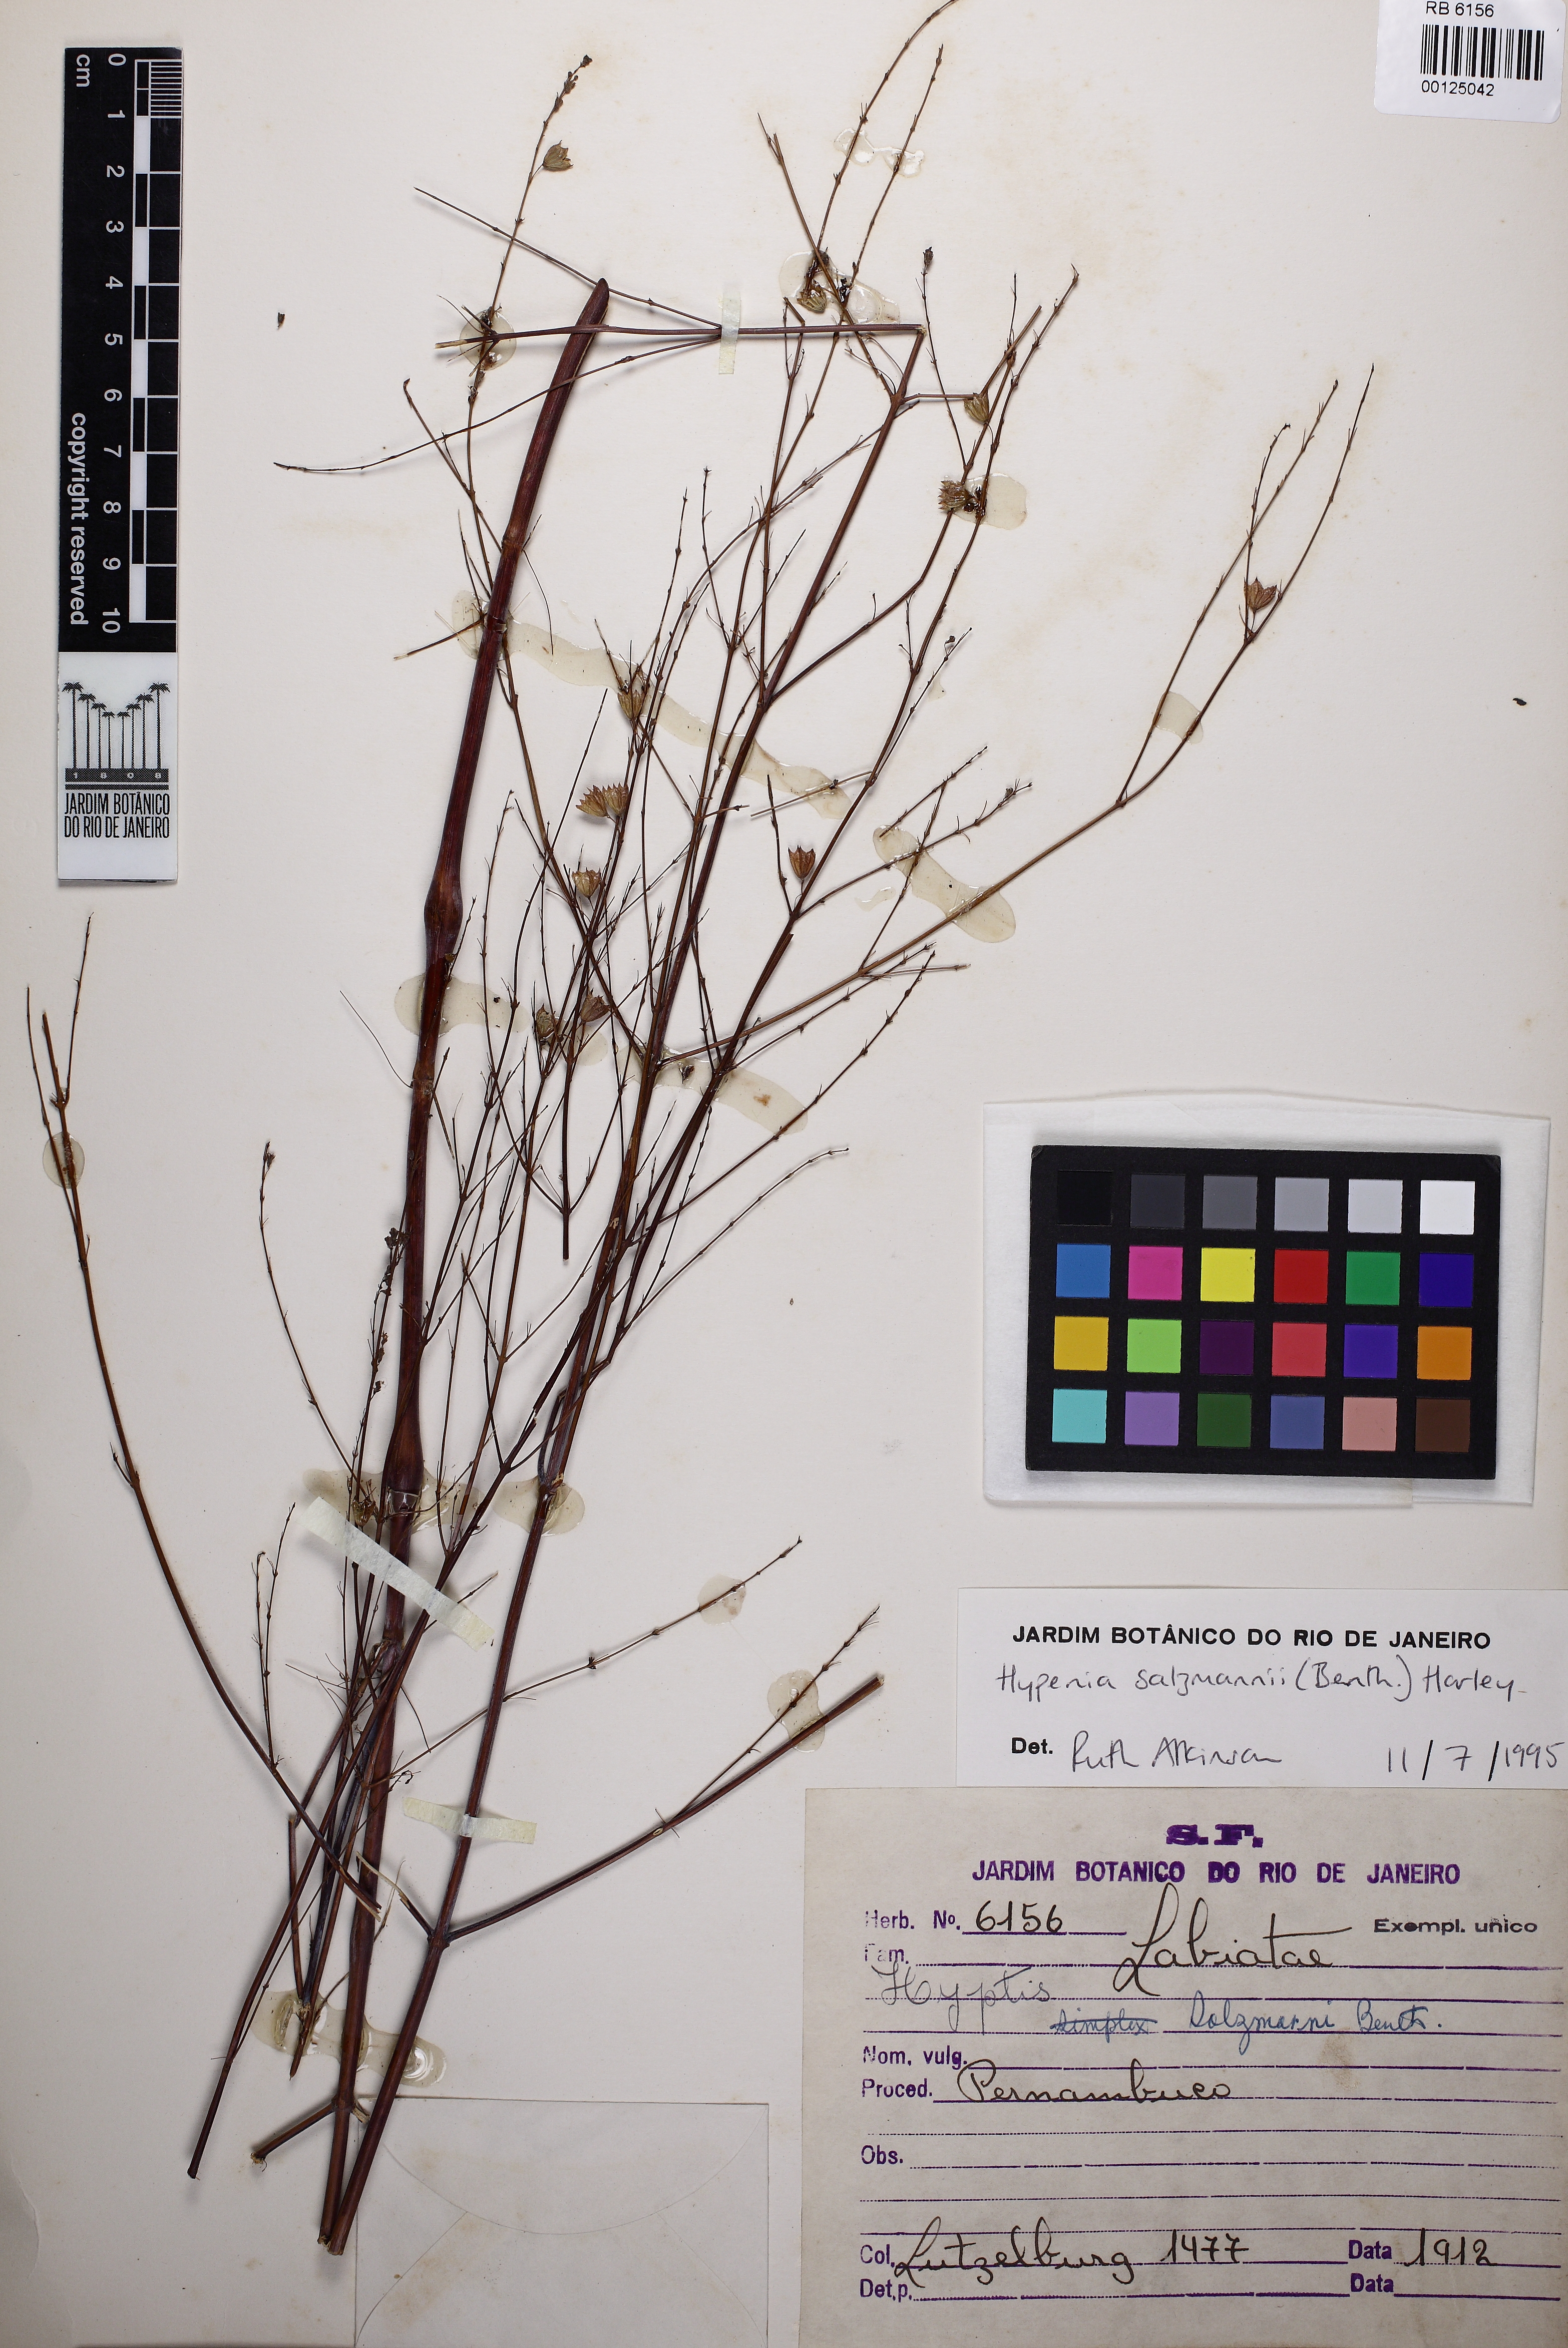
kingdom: Plantae
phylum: Tracheophyta
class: Magnoliopsida
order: Lamiales
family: Lamiaceae
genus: Hypenia
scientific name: Hypenia salzmannii
